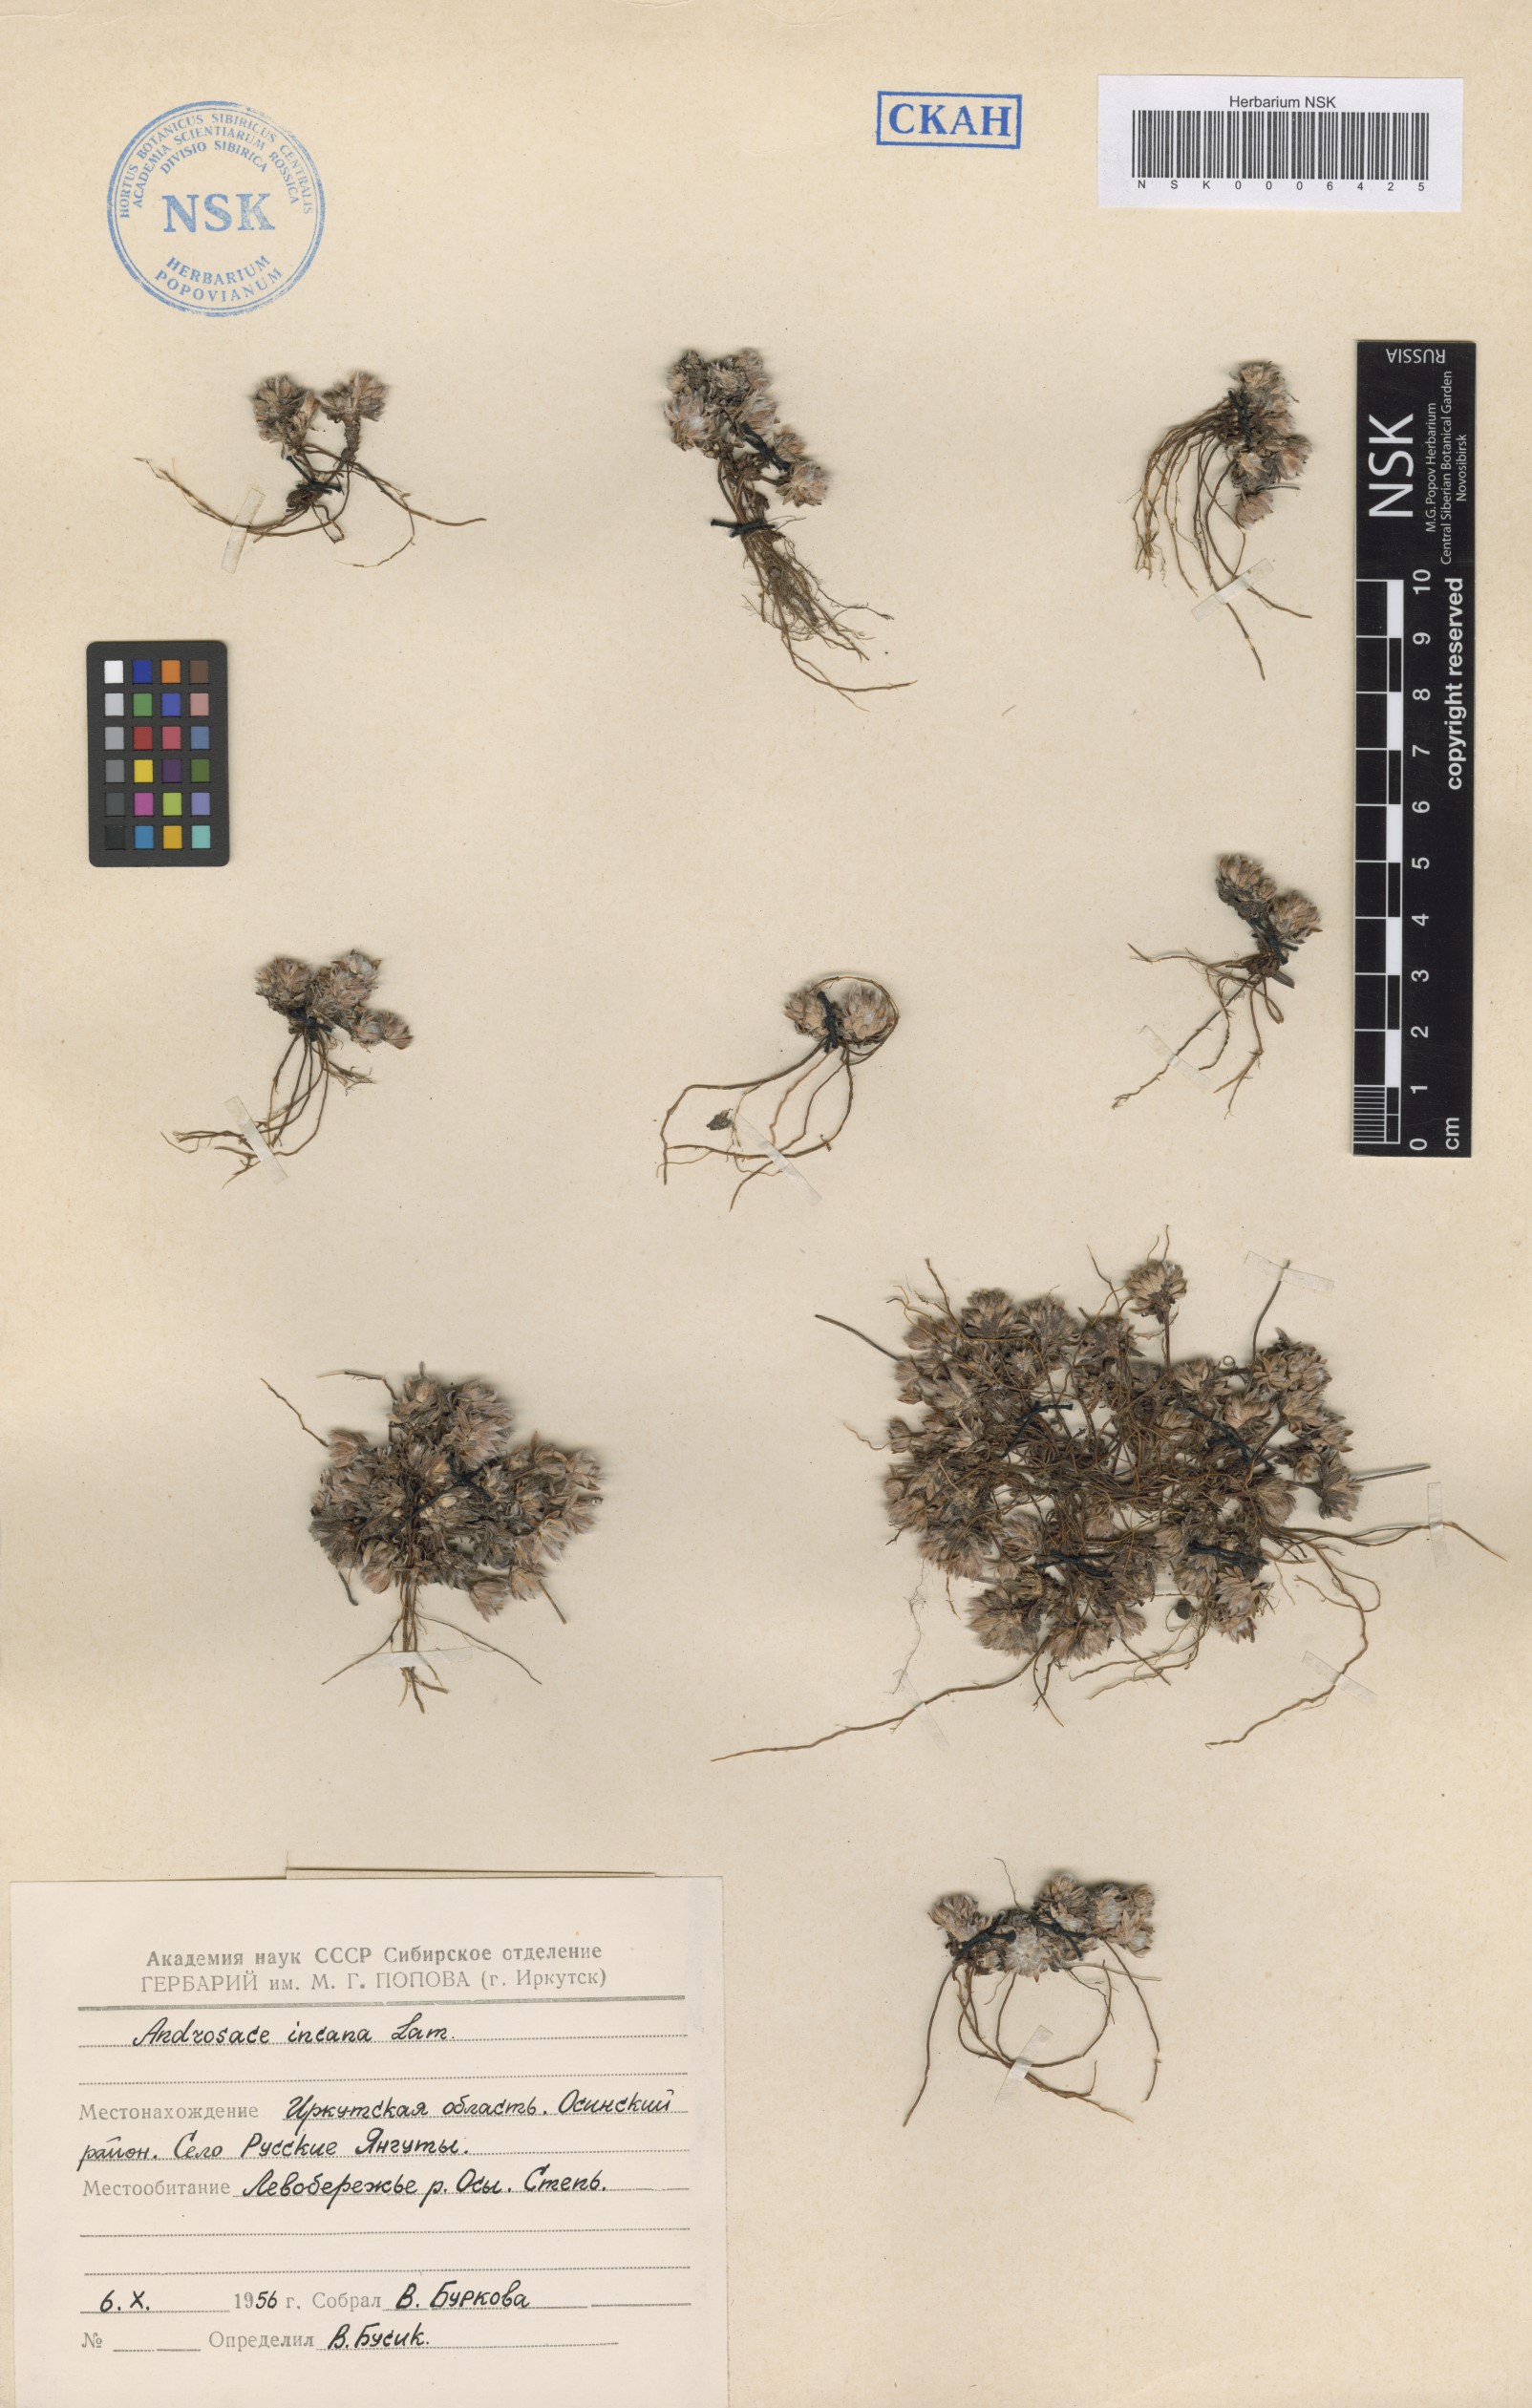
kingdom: Plantae
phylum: Tracheophyta
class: Magnoliopsida
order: Ericales
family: Primulaceae
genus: Androsace
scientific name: Androsace incana
